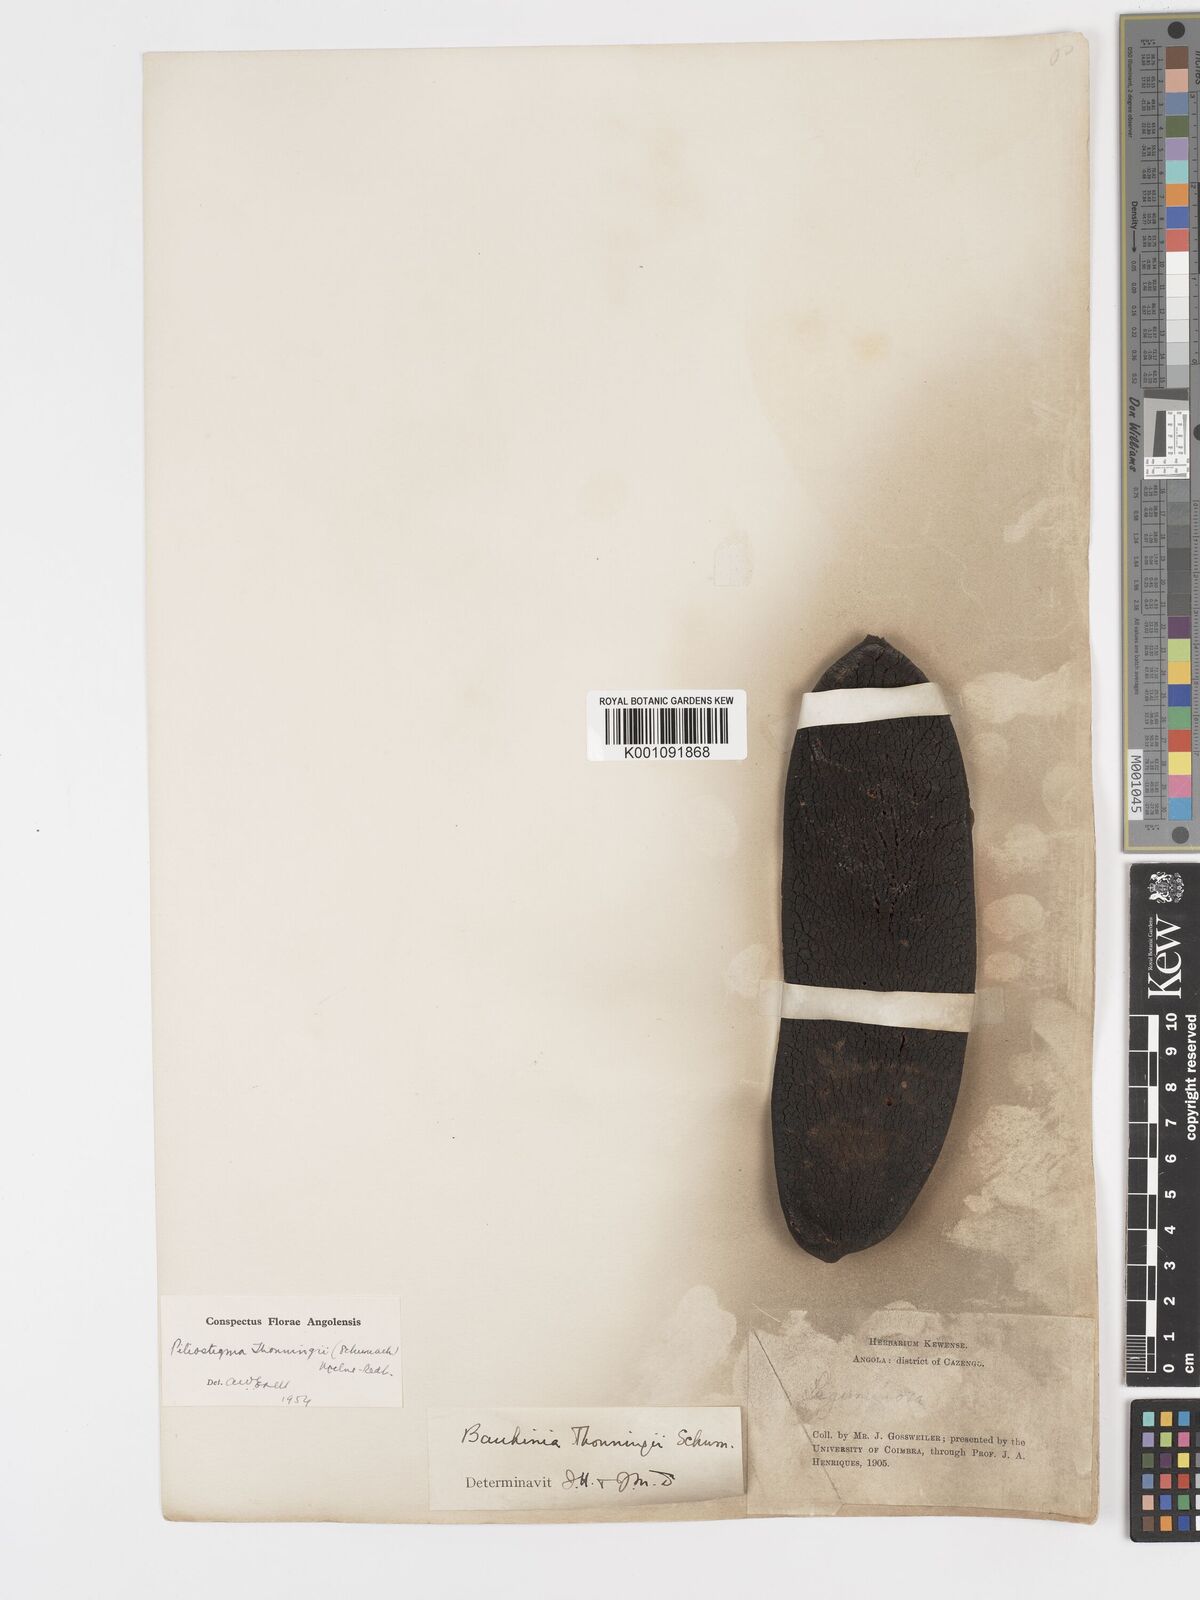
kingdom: Plantae
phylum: Tracheophyta
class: Magnoliopsida
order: Fabales
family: Fabaceae
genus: Piliostigma
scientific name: Piliostigma thonningii
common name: Kao
